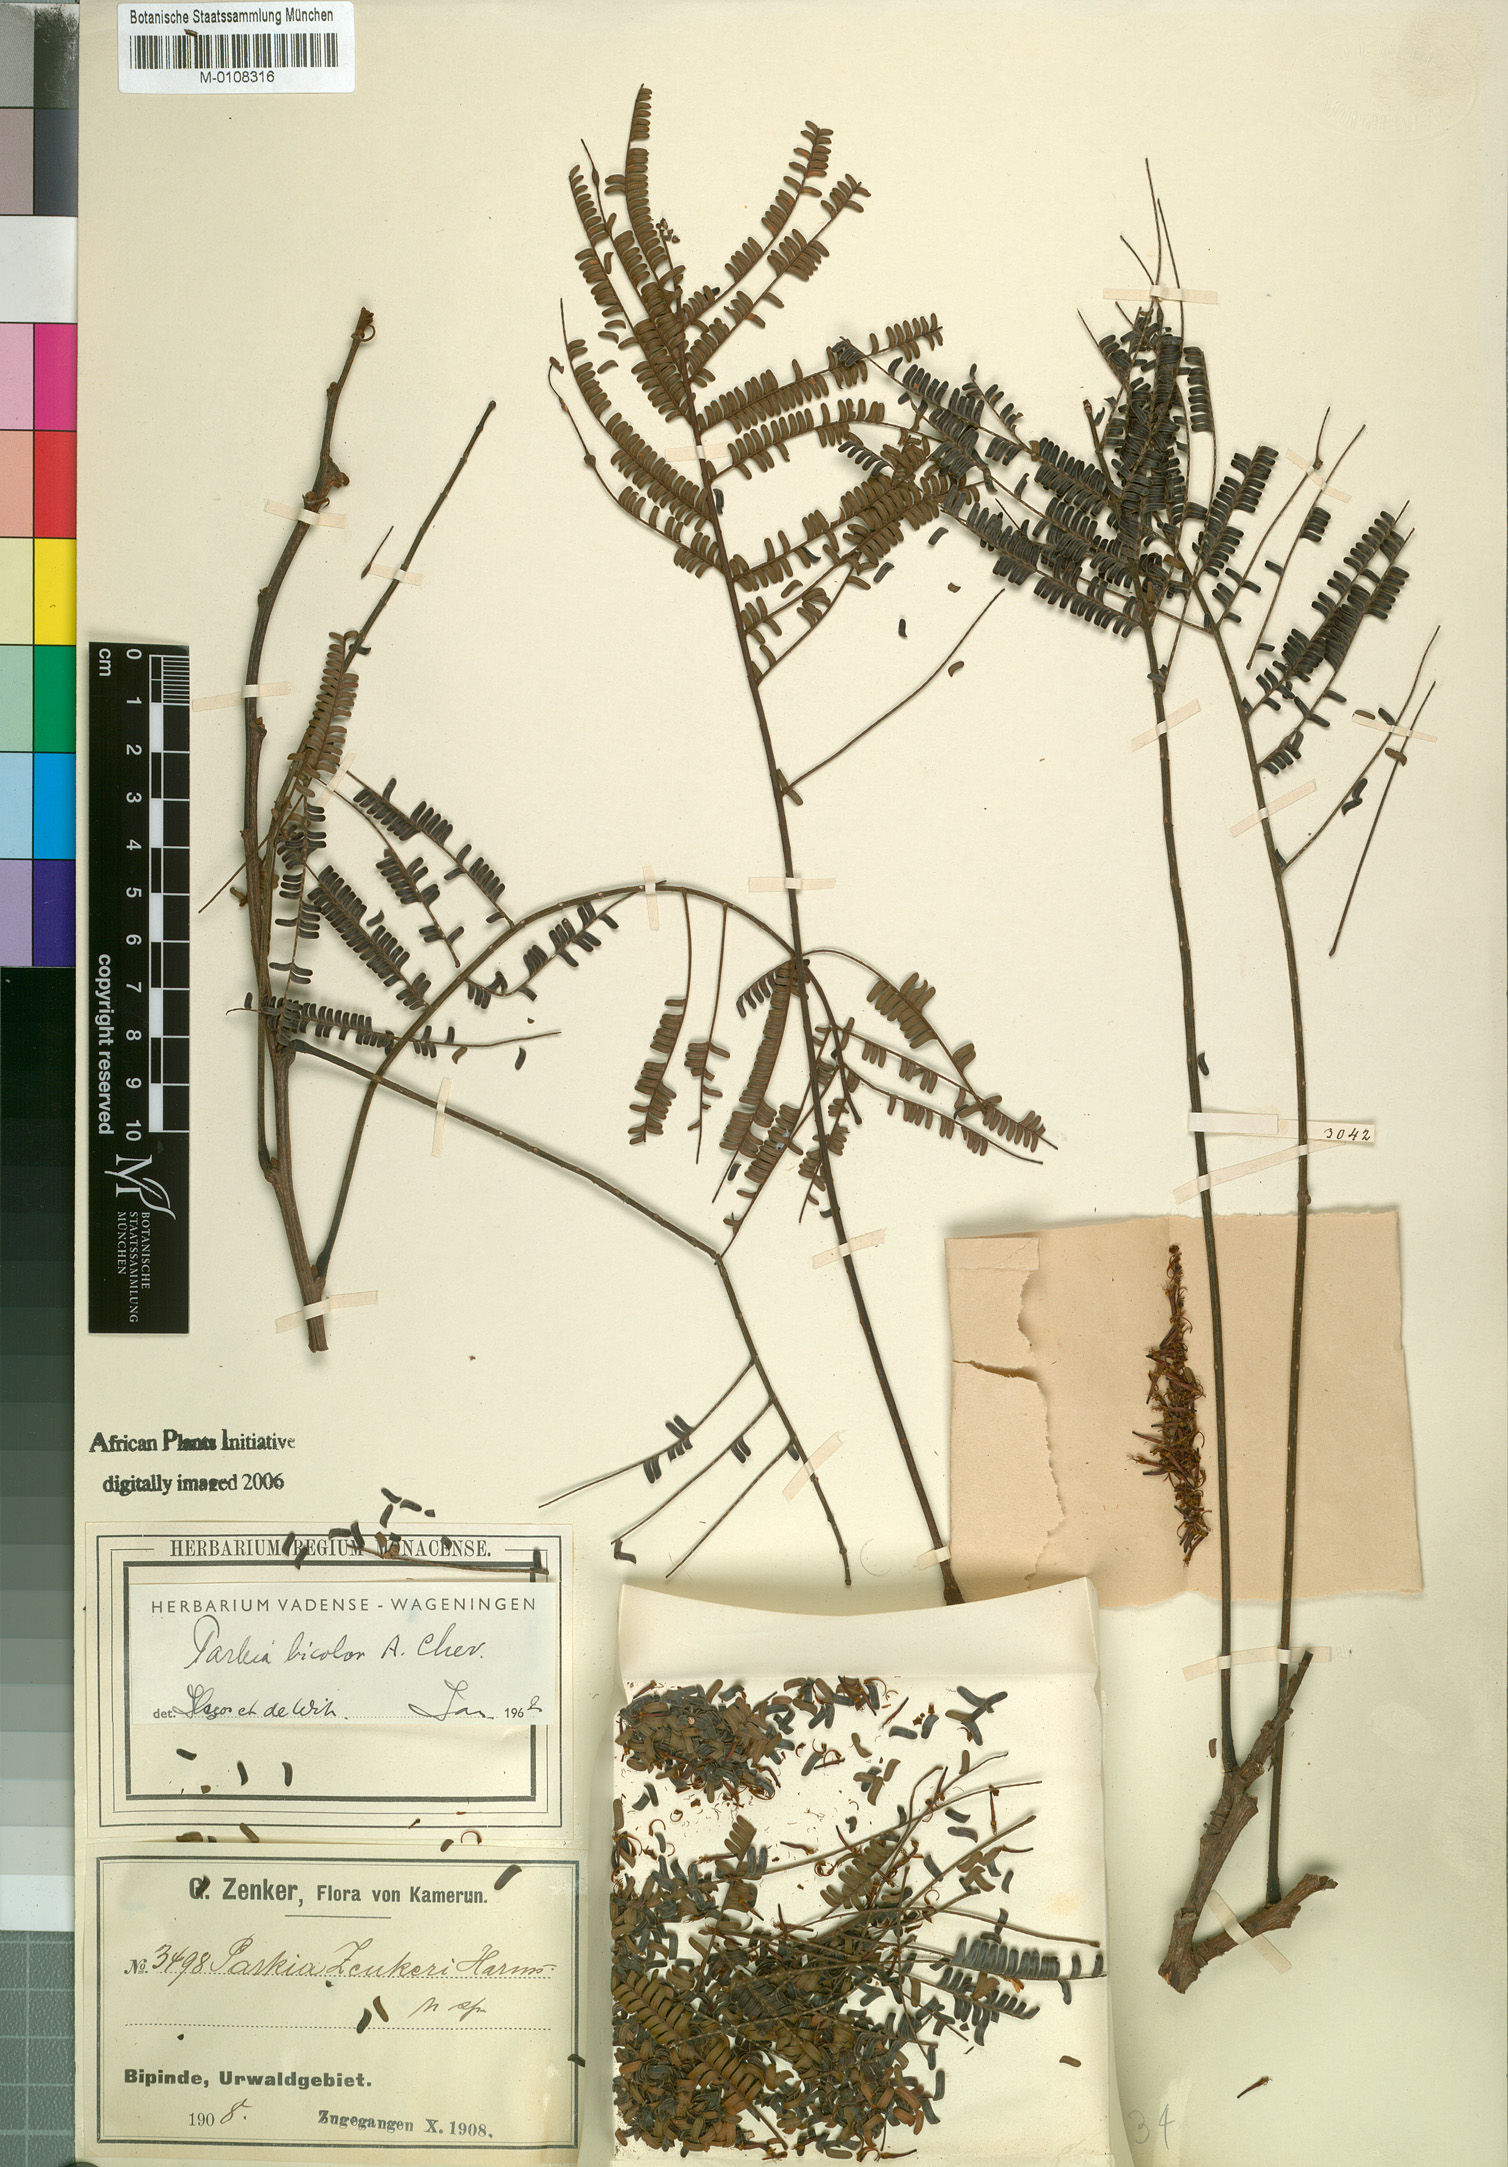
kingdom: Plantae
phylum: Tracheophyta
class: Magnoliopsida
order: Fabales
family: Fabaceae
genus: Parkia
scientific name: Parkia bicolor
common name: African locust-bean
